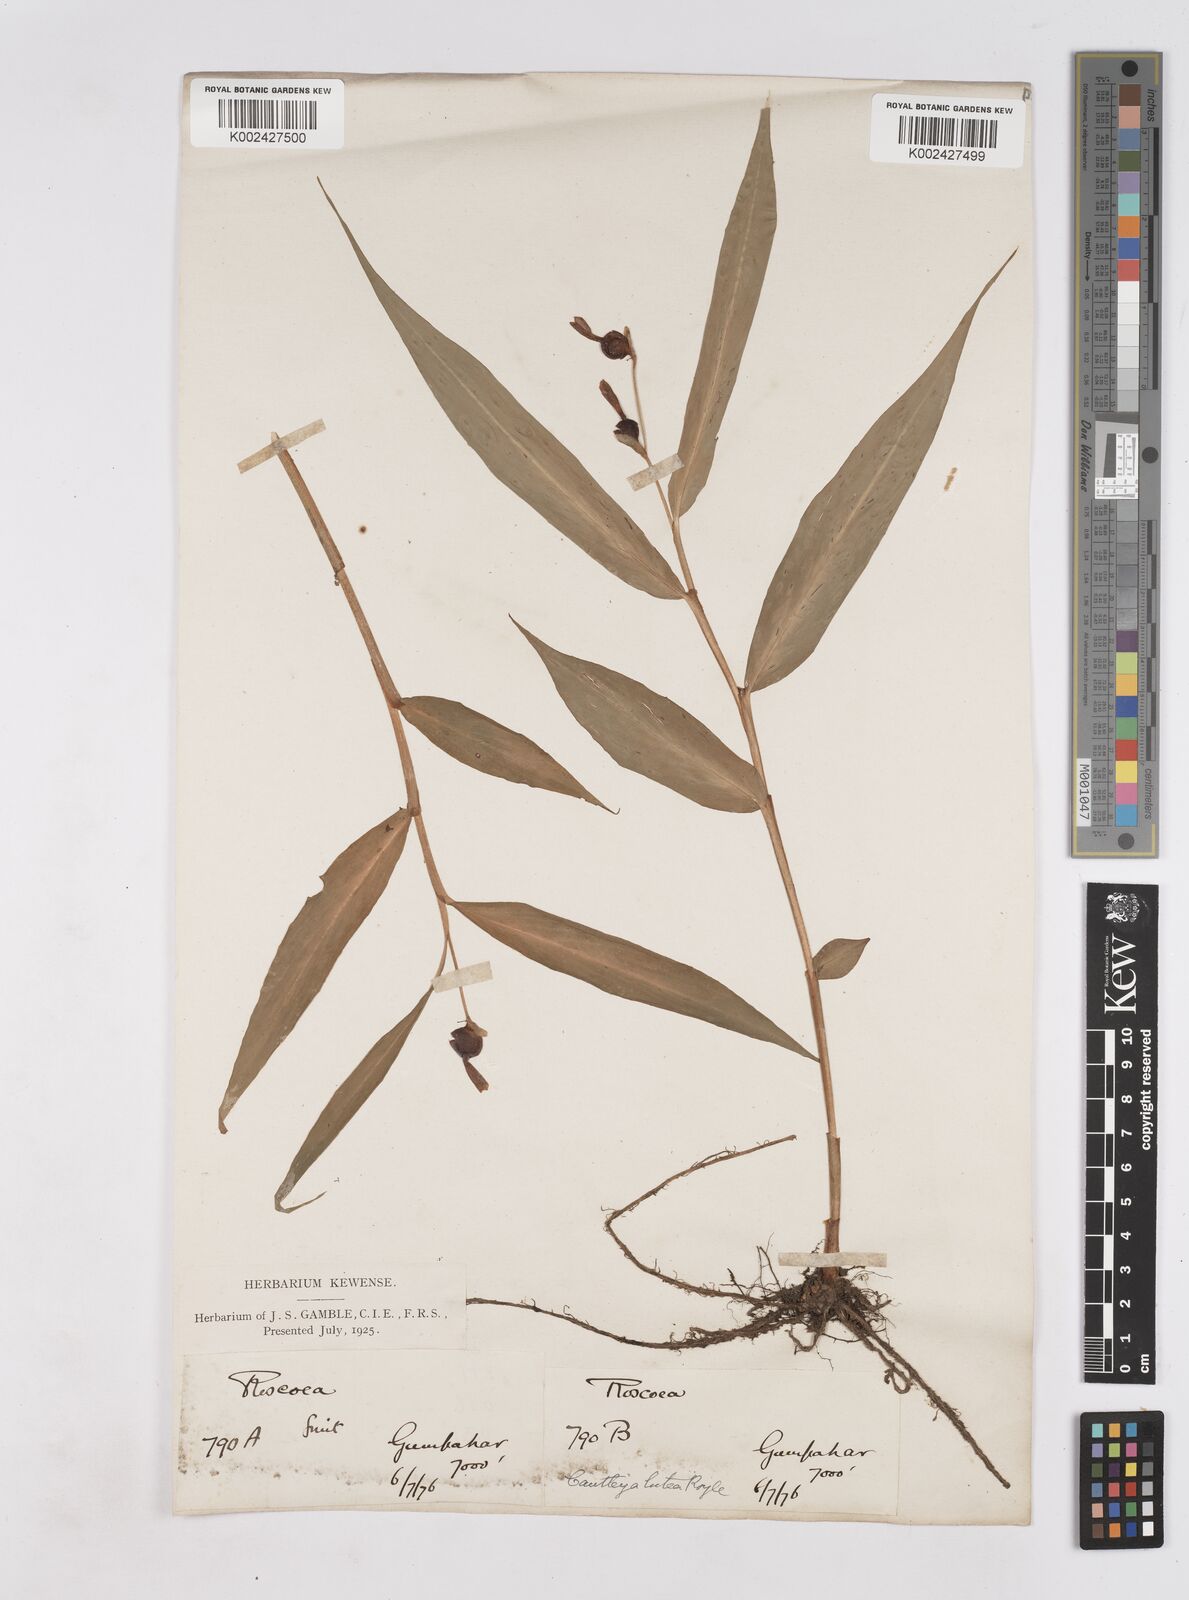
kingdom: Plantae
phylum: Tracheophyta
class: Liliopsida
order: Zingiberales
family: Zingiberaceae
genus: Cautleya
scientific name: Cautleya gracilis
